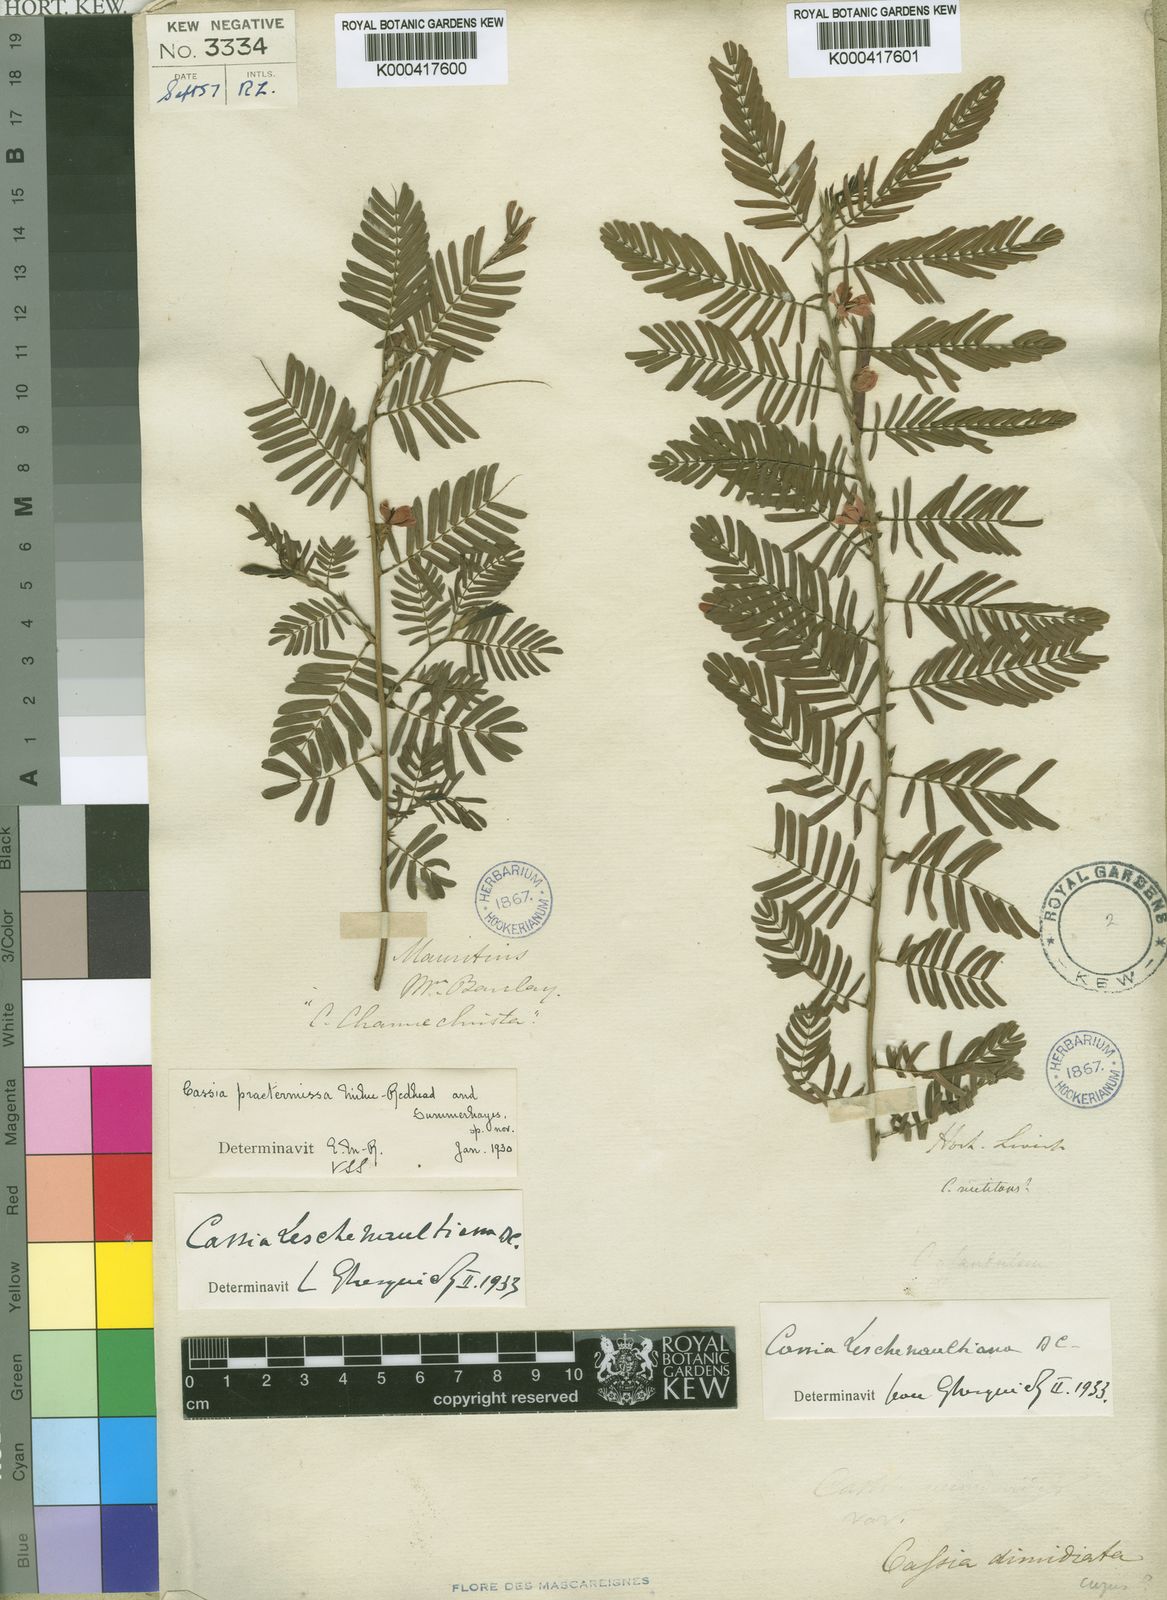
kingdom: Plantae
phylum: Tracheophyta
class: Magnoliopsida
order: Fabales
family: Fabaceae
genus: Chamaecrista
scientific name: Chamaecrista leschenaultiana
